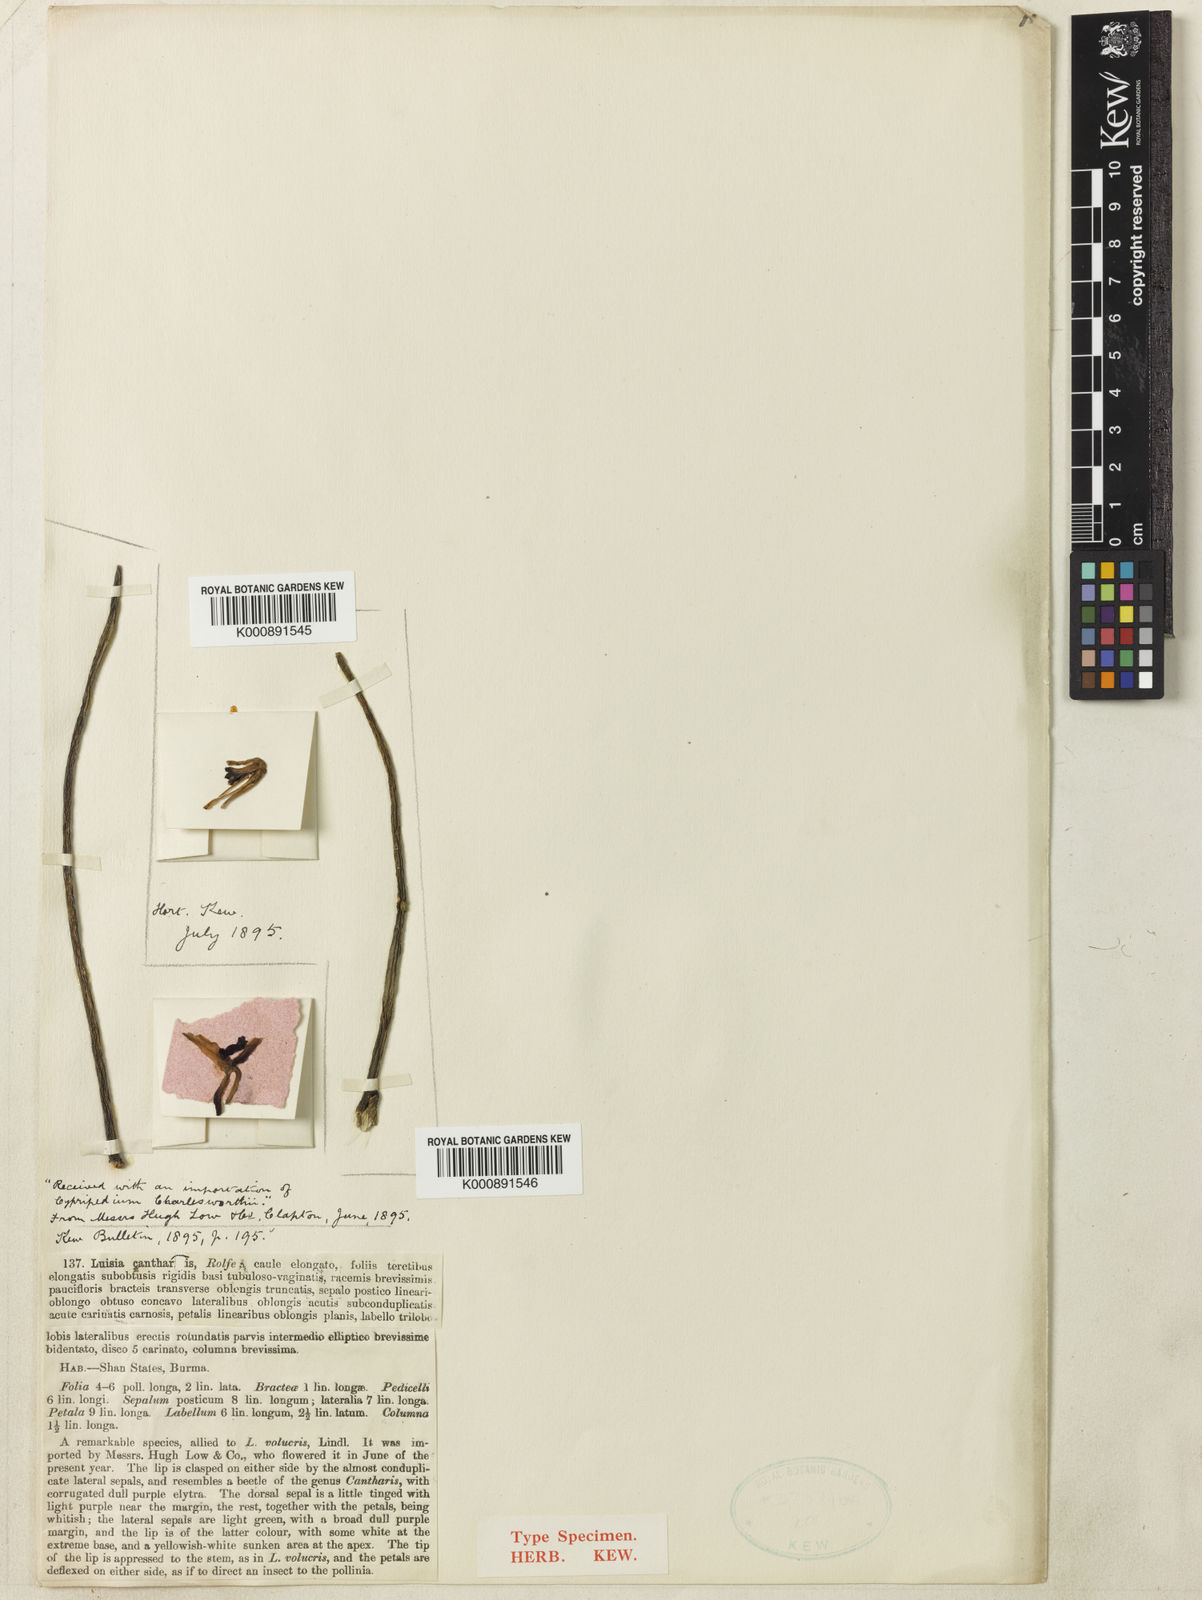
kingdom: Plantae
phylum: Tracheophyta
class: Liliopsida
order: Asparagales
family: Orchidaceae
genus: Luisia
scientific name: Luisia cantharis
